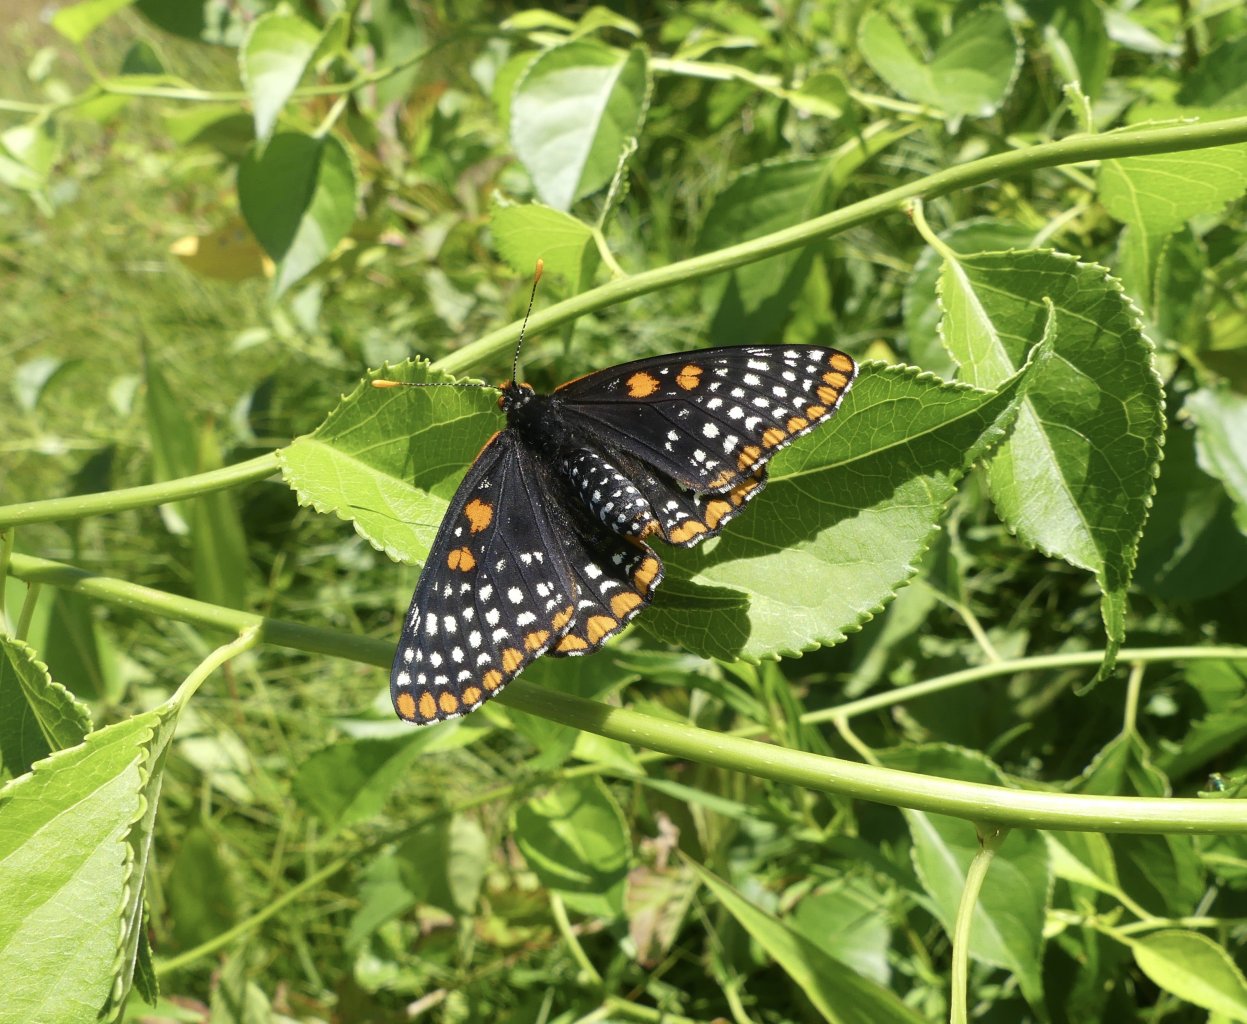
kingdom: Animalia
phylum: Arthropoda
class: Insecta
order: Lepidoptera
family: Nymphalidae
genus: Euphydryas
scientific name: Euphydryas phaeton
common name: Baltimore Checkerspot
